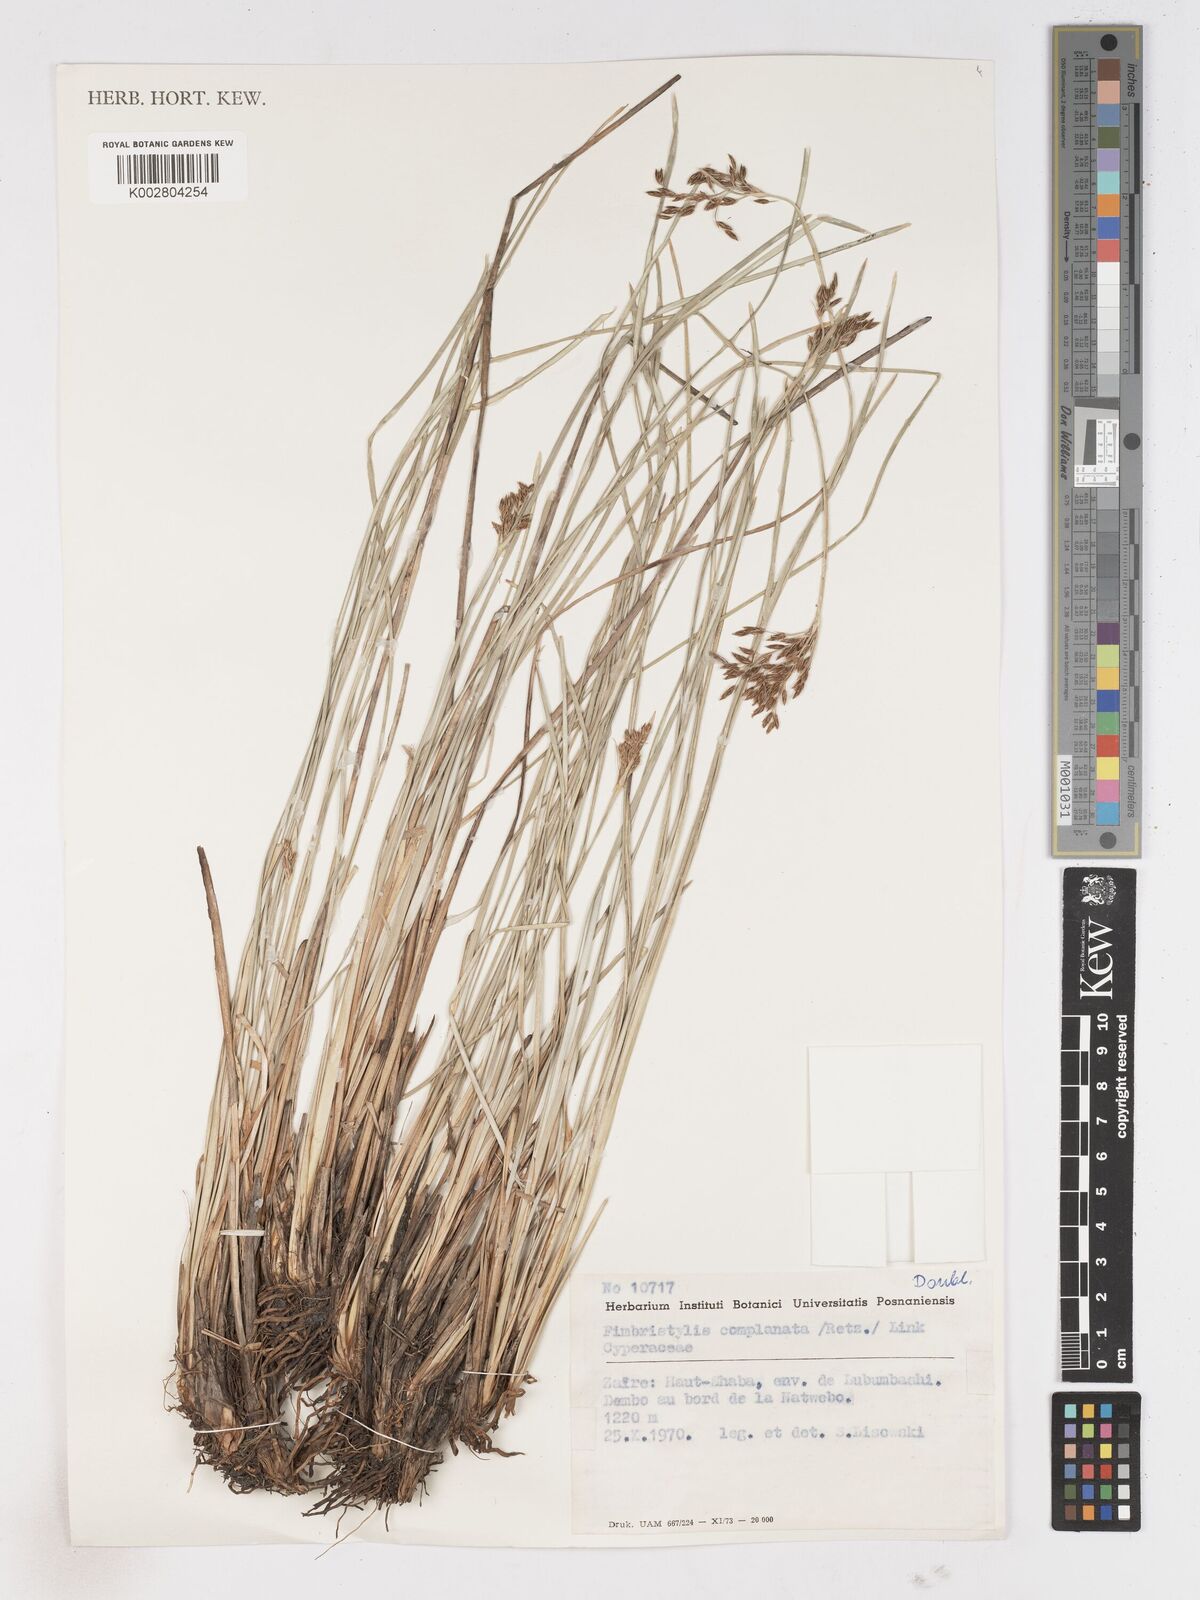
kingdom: Plantae
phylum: Tracheophyta
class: Liliopsida
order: Poales
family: Cyperaceae
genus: Fimbristylis
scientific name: Fimbristylis complanata
